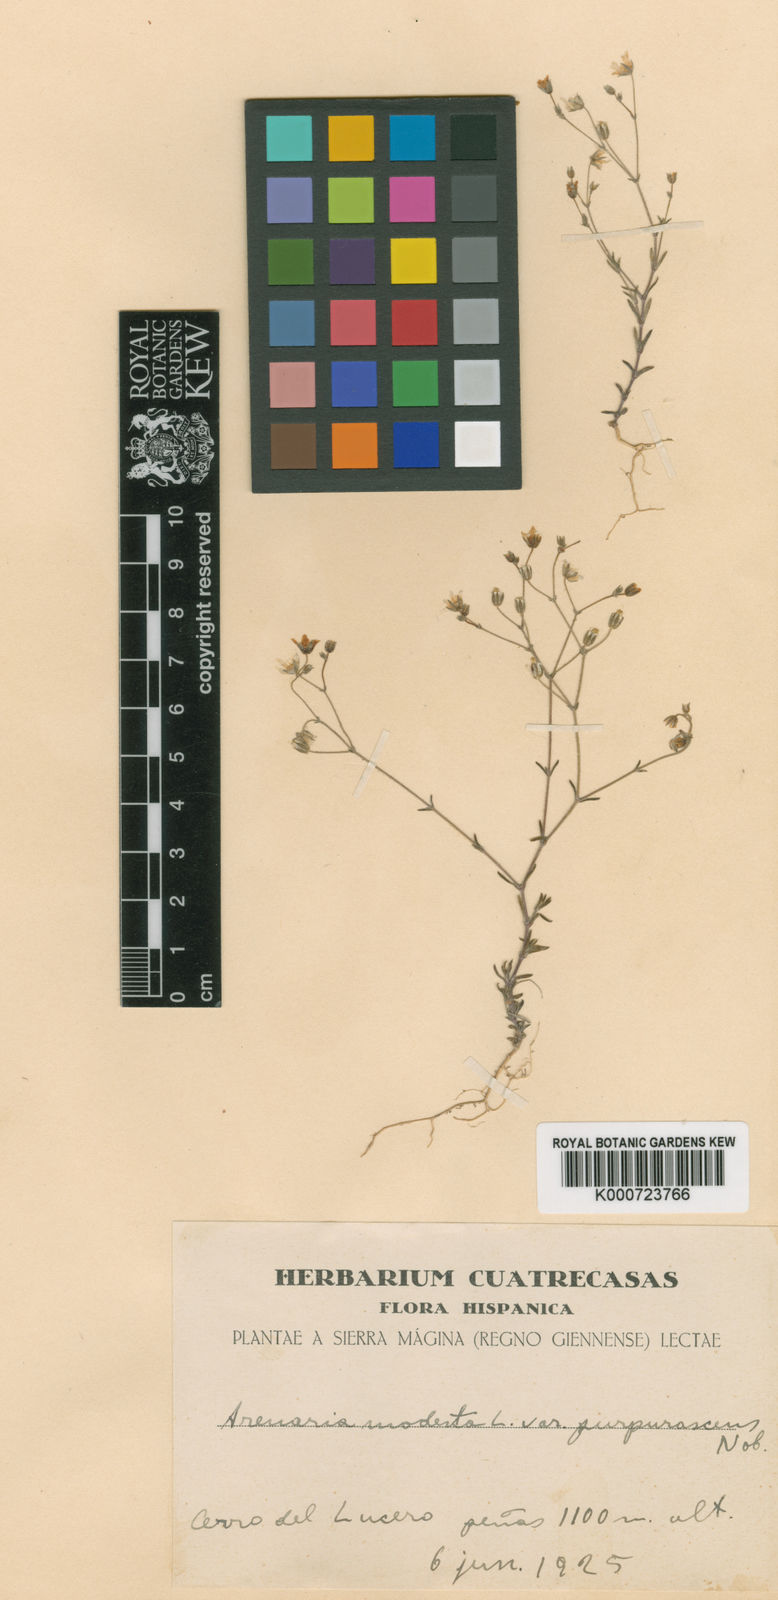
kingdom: Plantae
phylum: Tracheophyta
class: Magnoliopsida
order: Caryophyllales
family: Caryophyllaceae
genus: Arenaria
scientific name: Arenaria modesta
